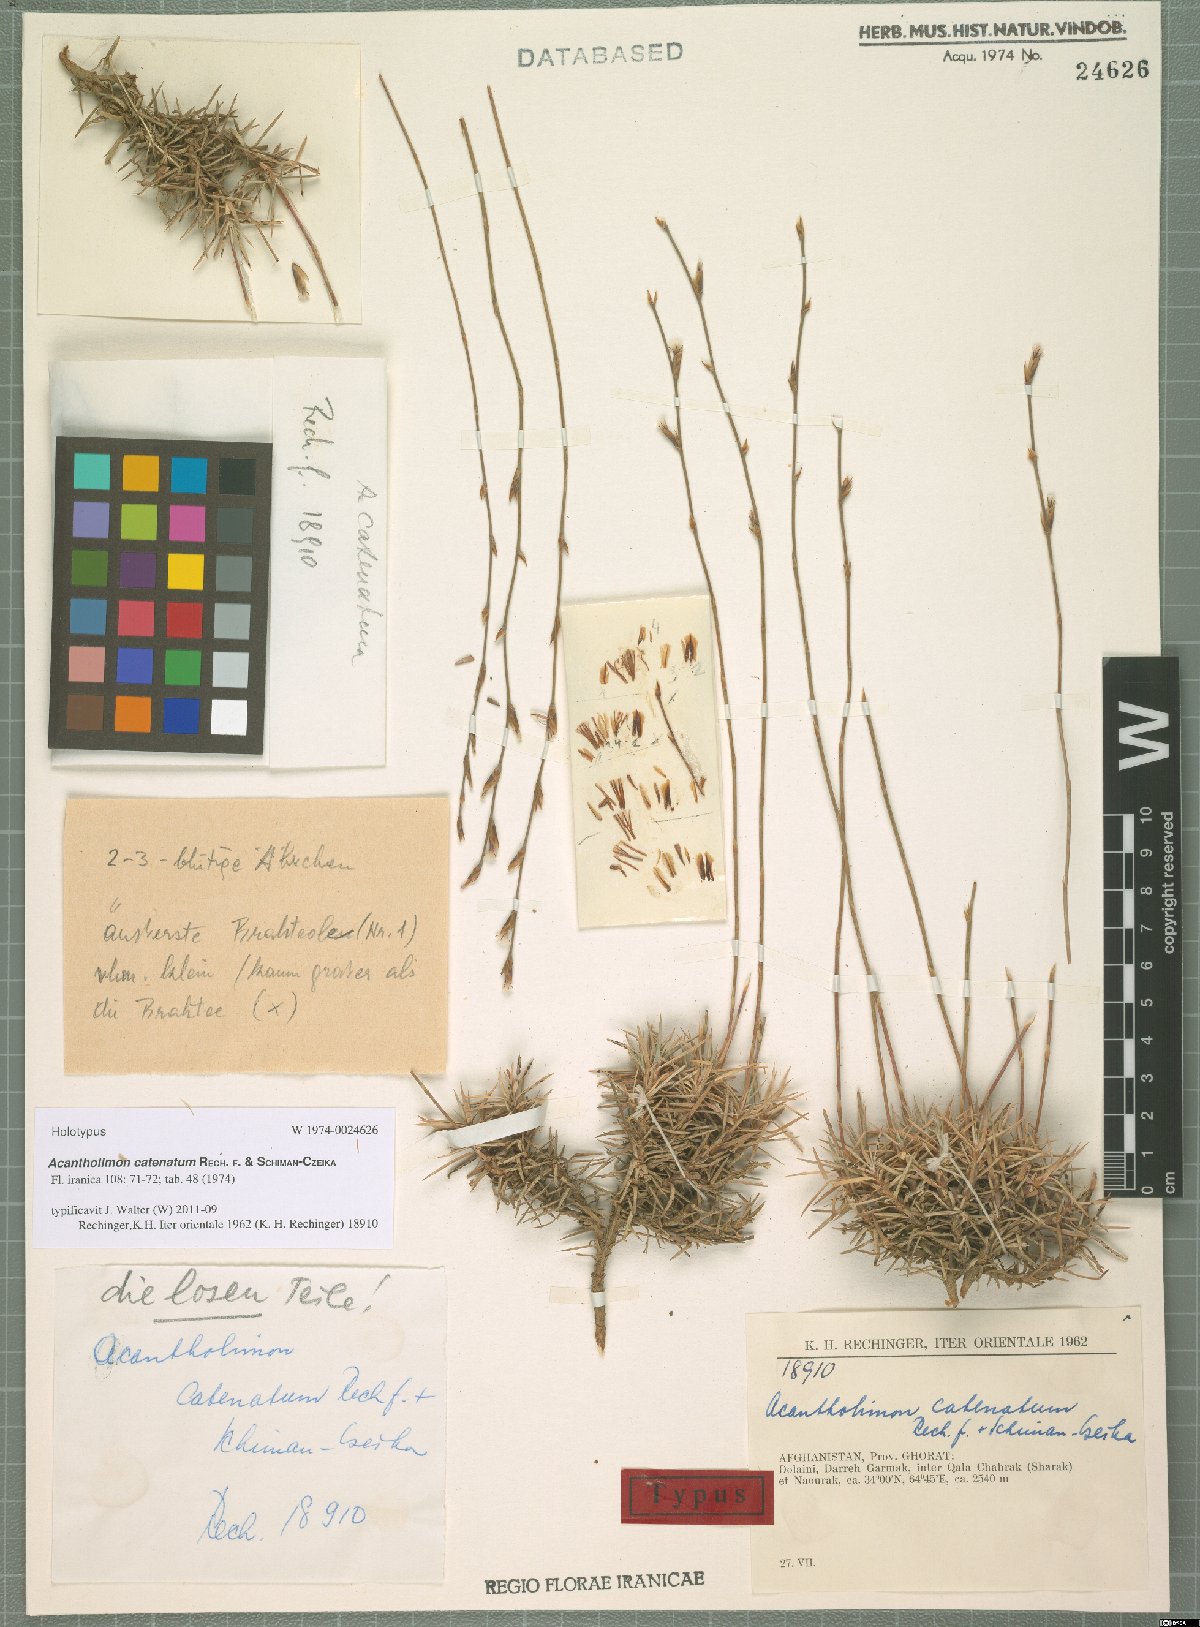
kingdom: Plantae
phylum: Tracheophyta
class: Magnoliopsida
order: Caryophyllales
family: Plumbaginaceae
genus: Acantholimon
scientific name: Acantholimon catenatum
